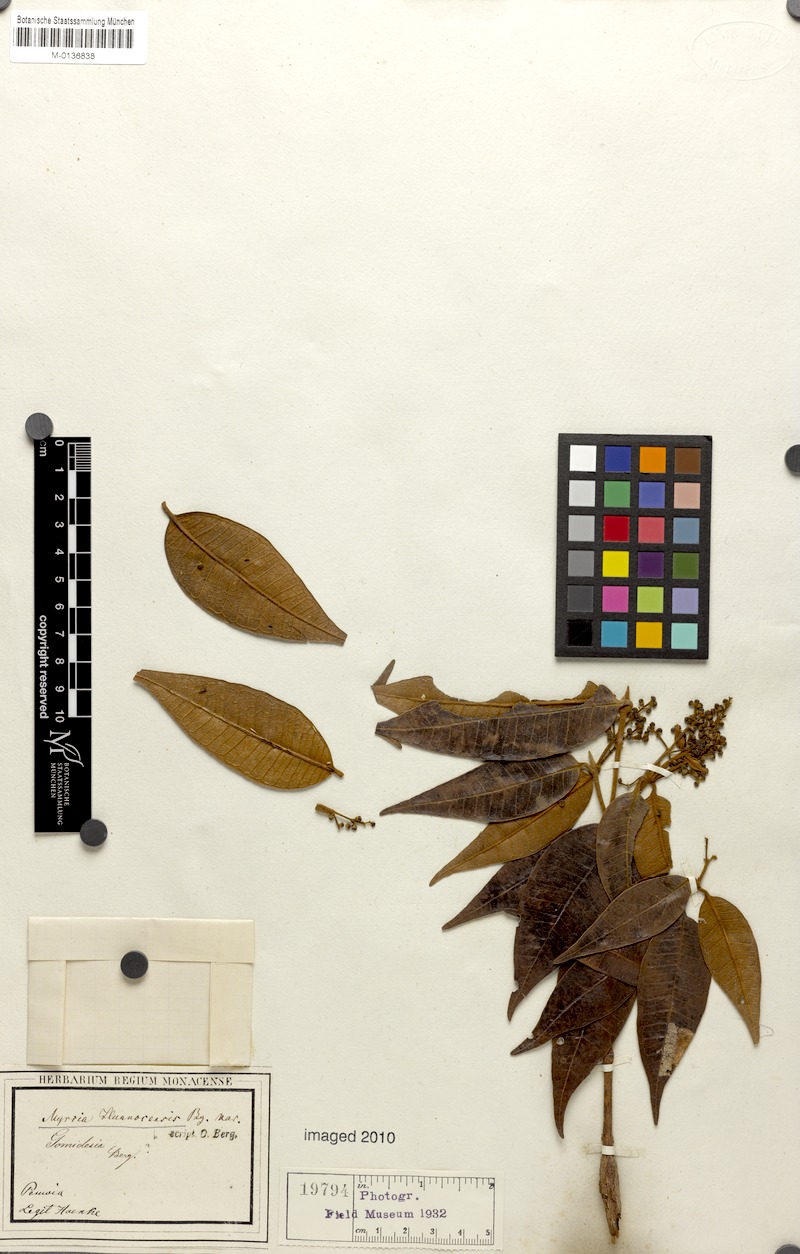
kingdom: Plantae
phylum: Tracheophyta
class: Magnoliopsida
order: Myrtales
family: Myrtaceae
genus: Myrcia
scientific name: Myrcia mollis
